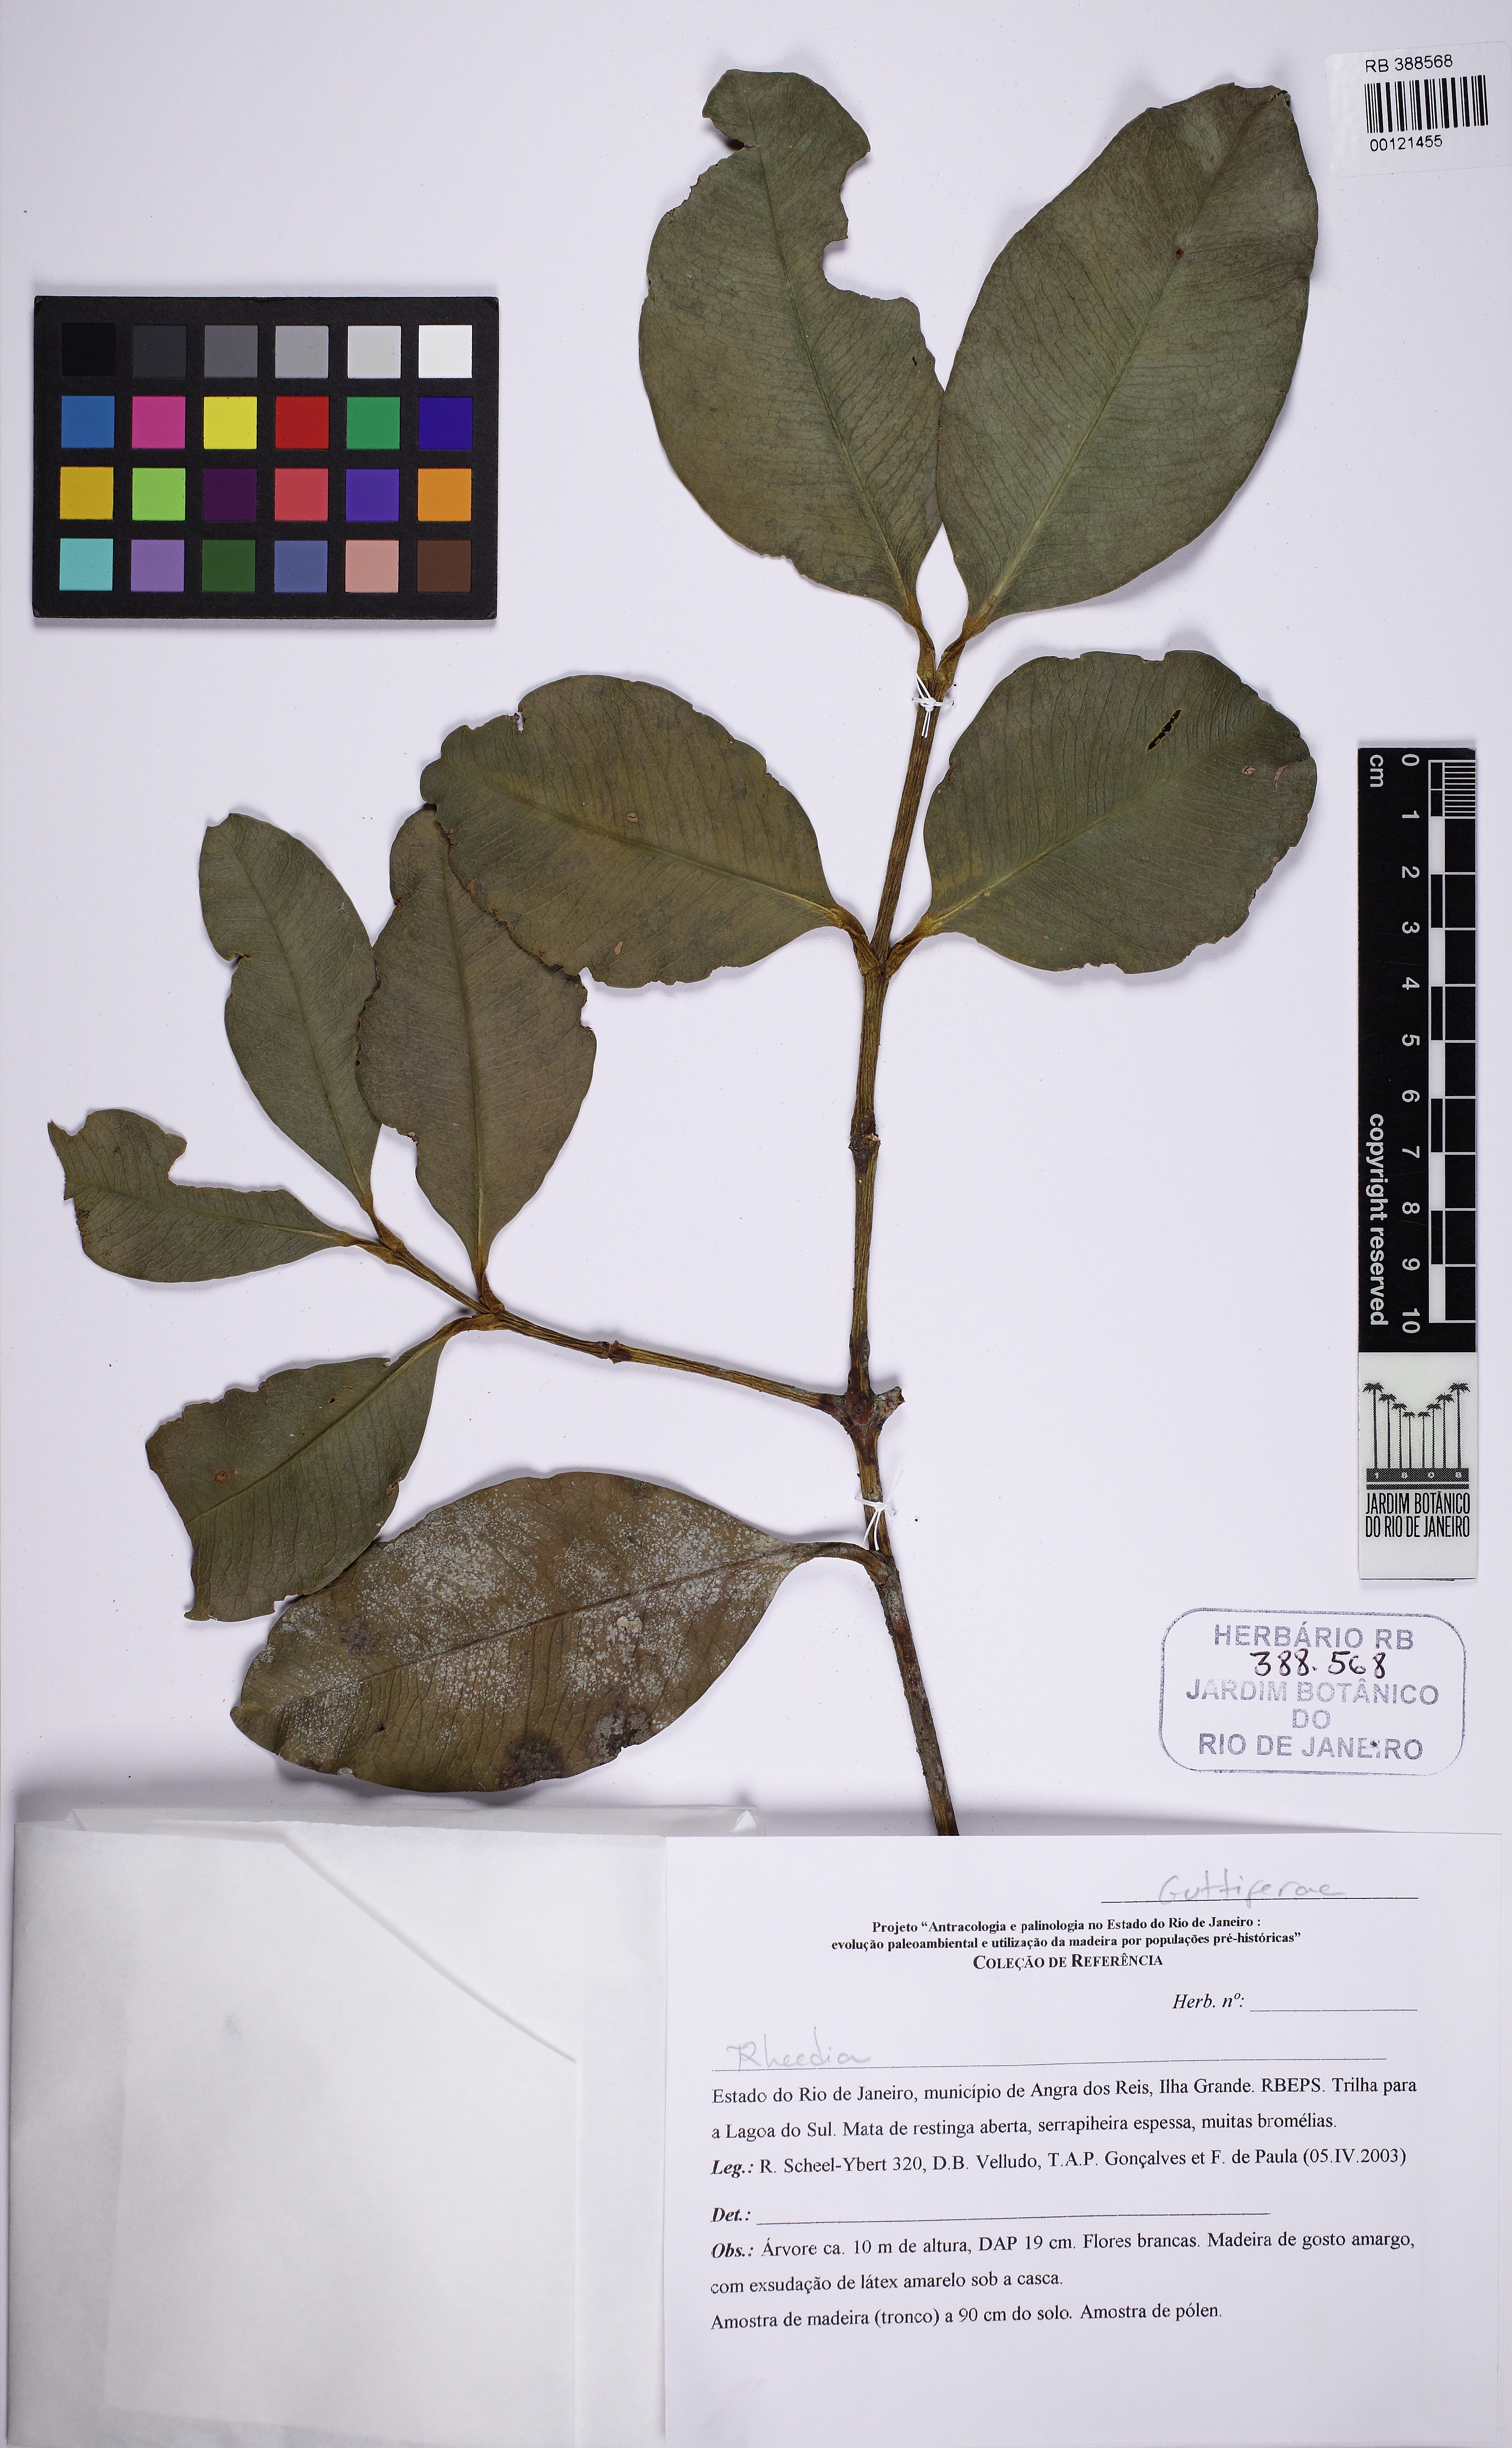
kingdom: Plantae
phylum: Tracheophyta
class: Magnoliopsida
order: Malpighiales
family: Clusiaceae
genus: Garcinia
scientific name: Garcinia brasiliensis
